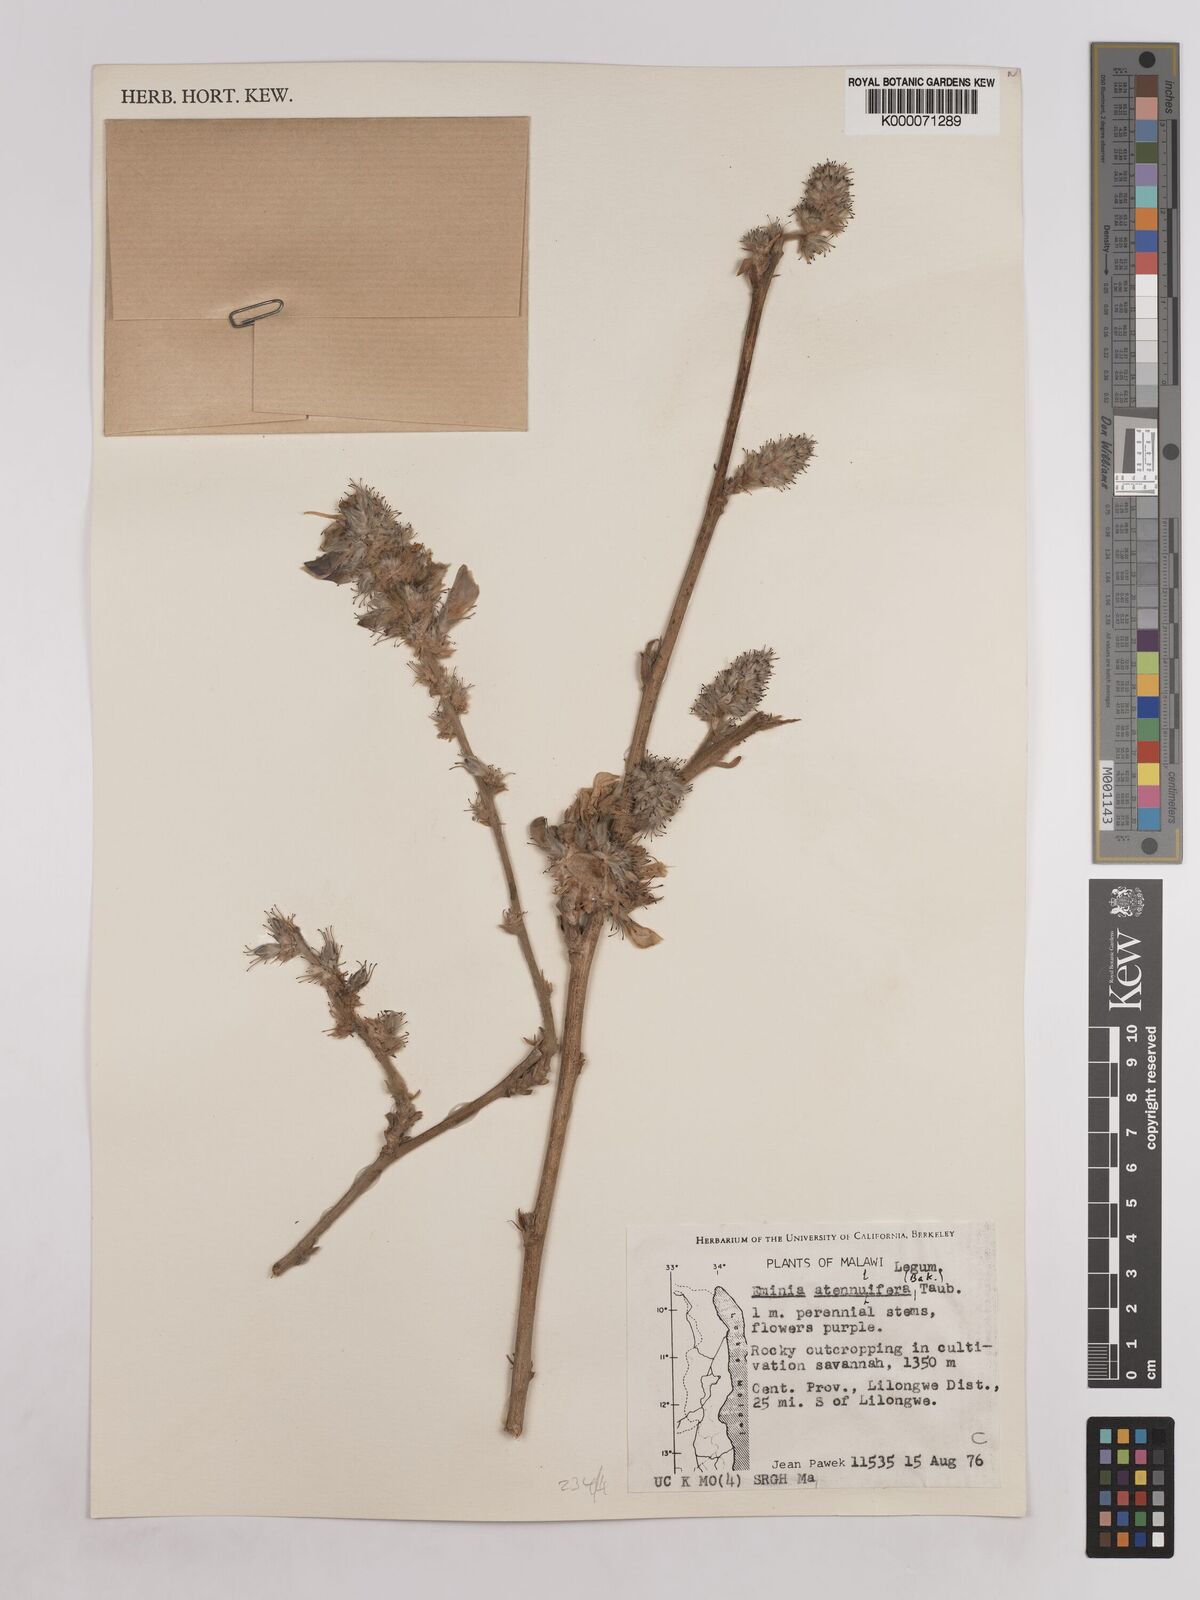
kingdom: Plantae
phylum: Tracheophyta
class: Magnoliopsida
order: Fabales
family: Fabaceae
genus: Eminia
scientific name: Eminia antennulifera
